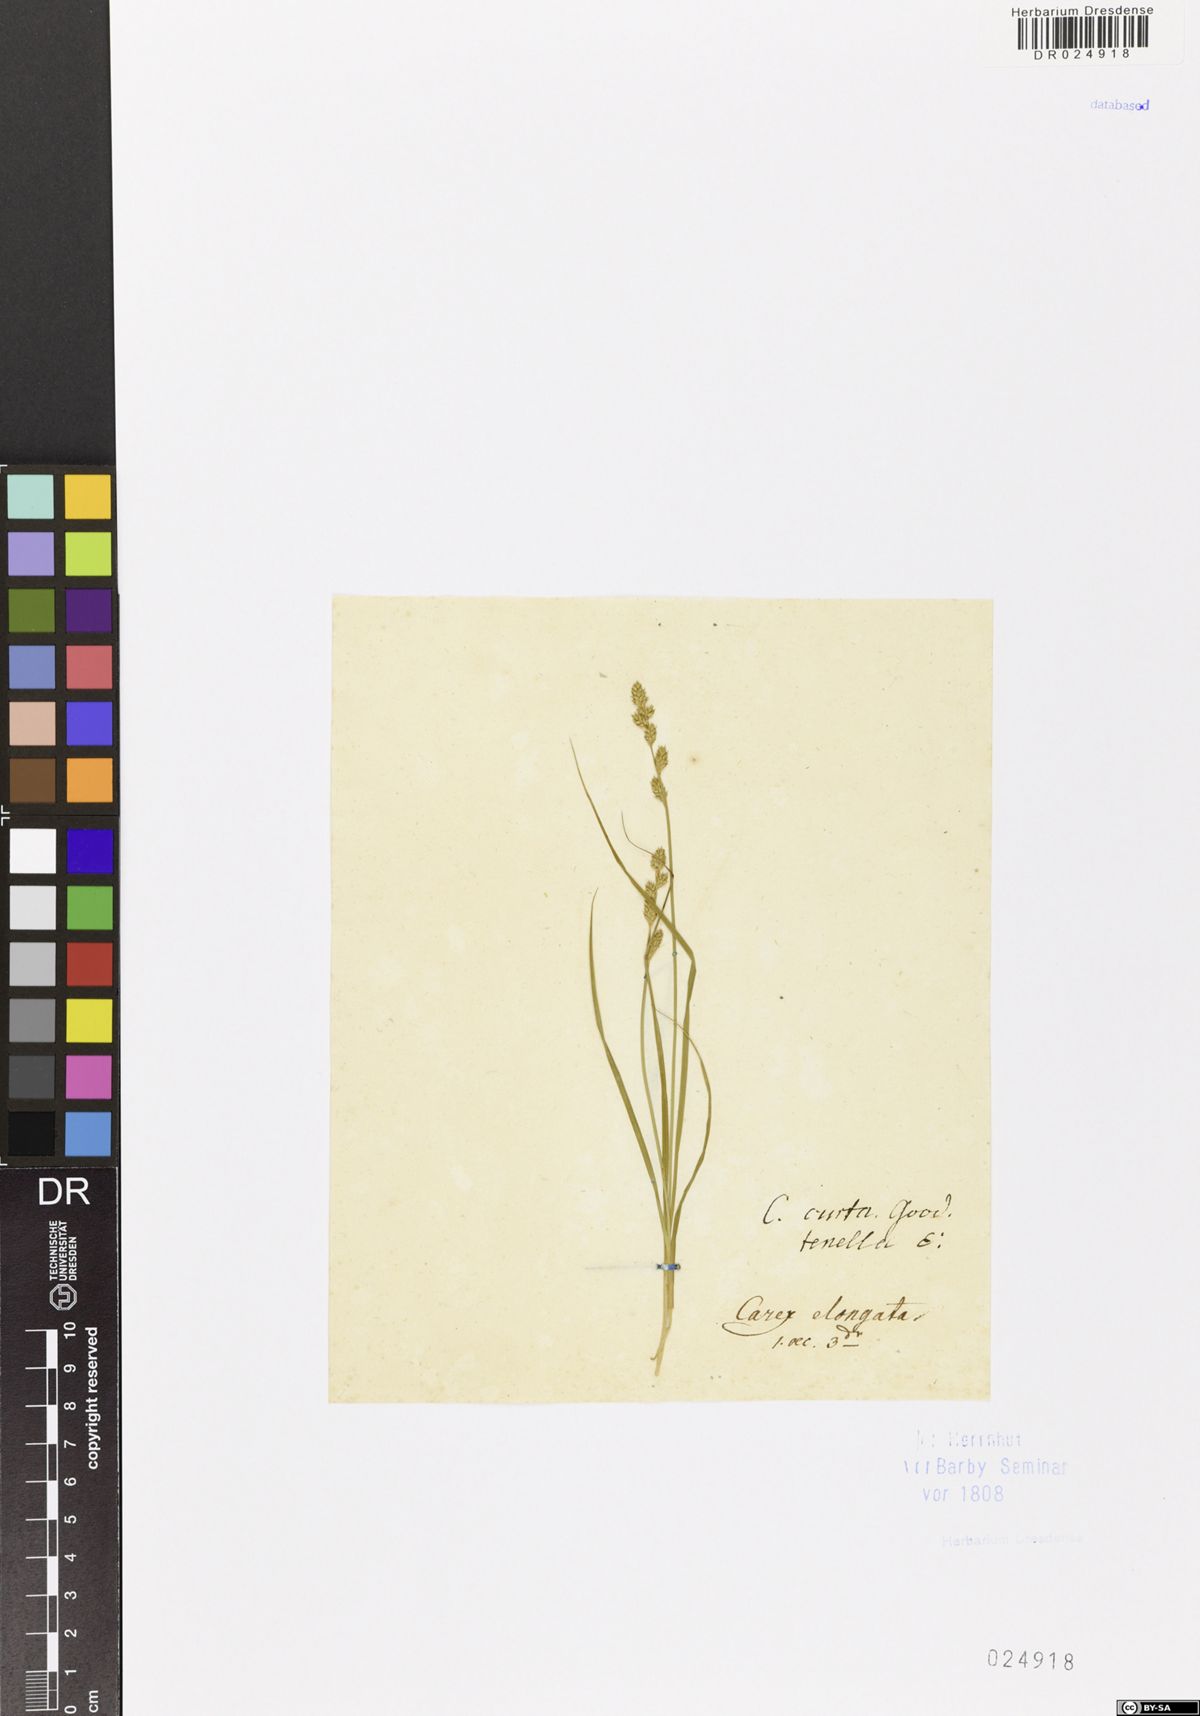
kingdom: Plantae
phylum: Tracheophyta
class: Liliopsida
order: Poales
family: Cyperaceae
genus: Carex
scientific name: Carex canescens
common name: White sedge
